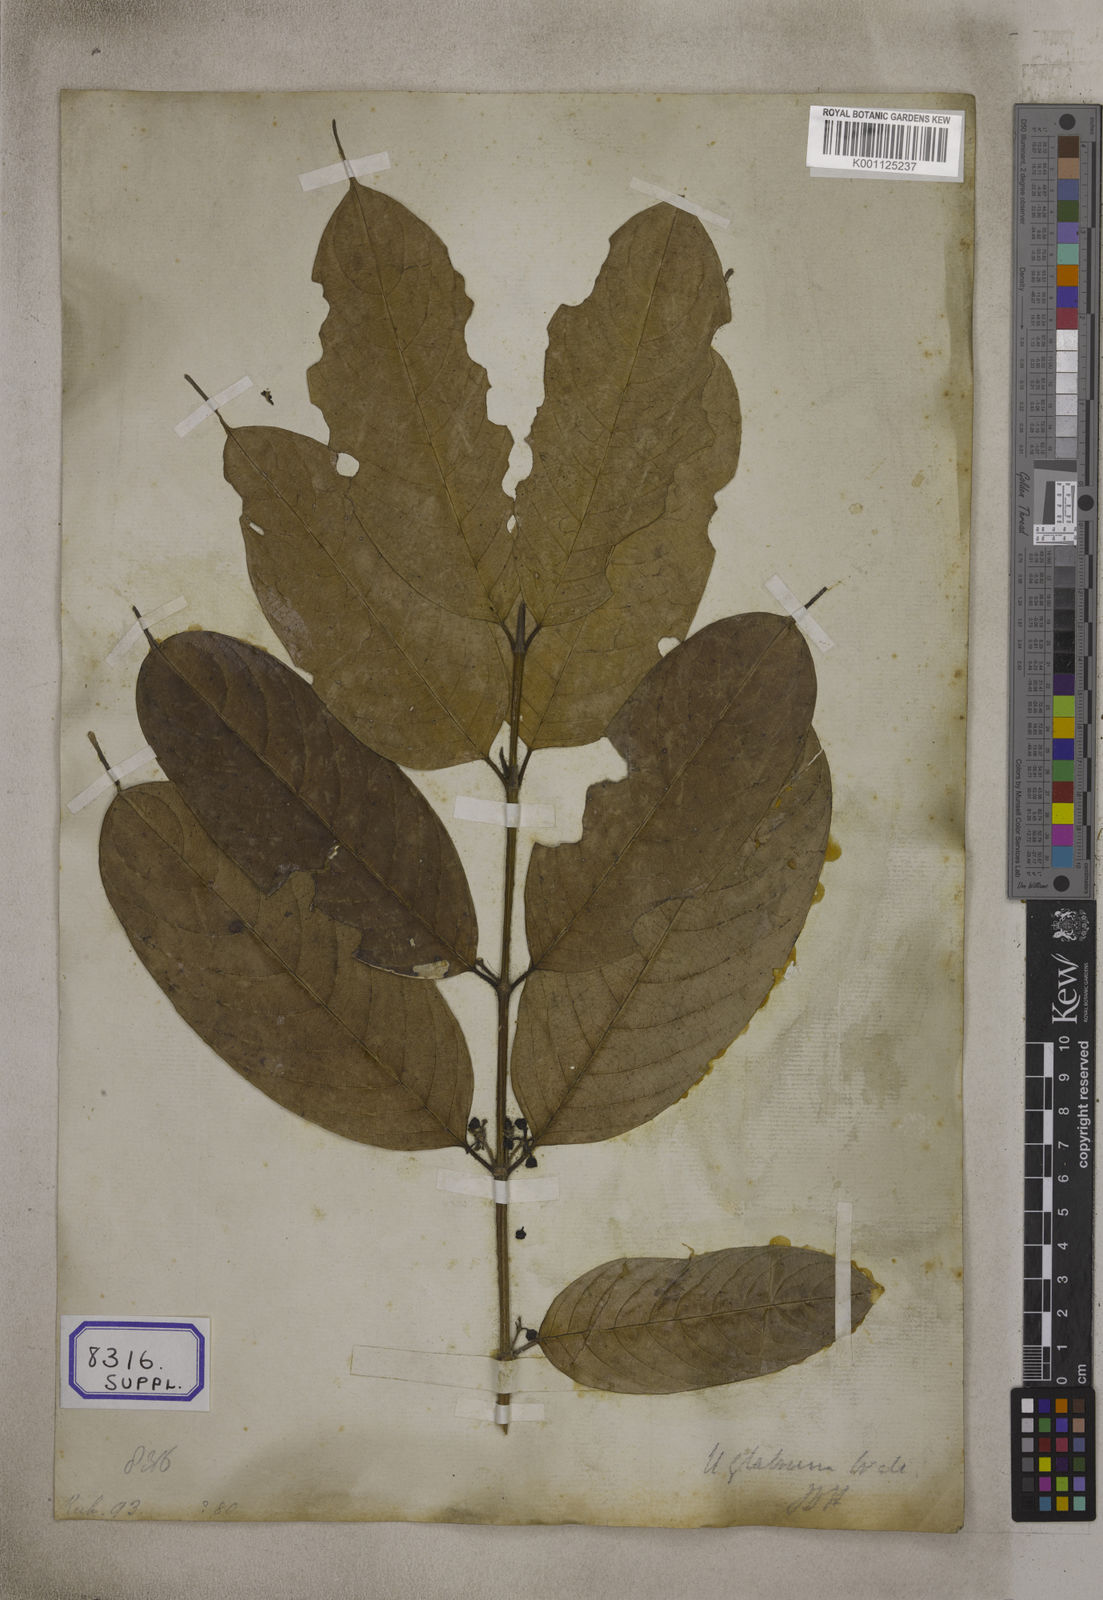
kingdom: Plantae
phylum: Tracheophyta
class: Magnoliopsida
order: Gentianales
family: Rubiaceae
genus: Urophyllum
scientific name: Urophyllum glabrum
